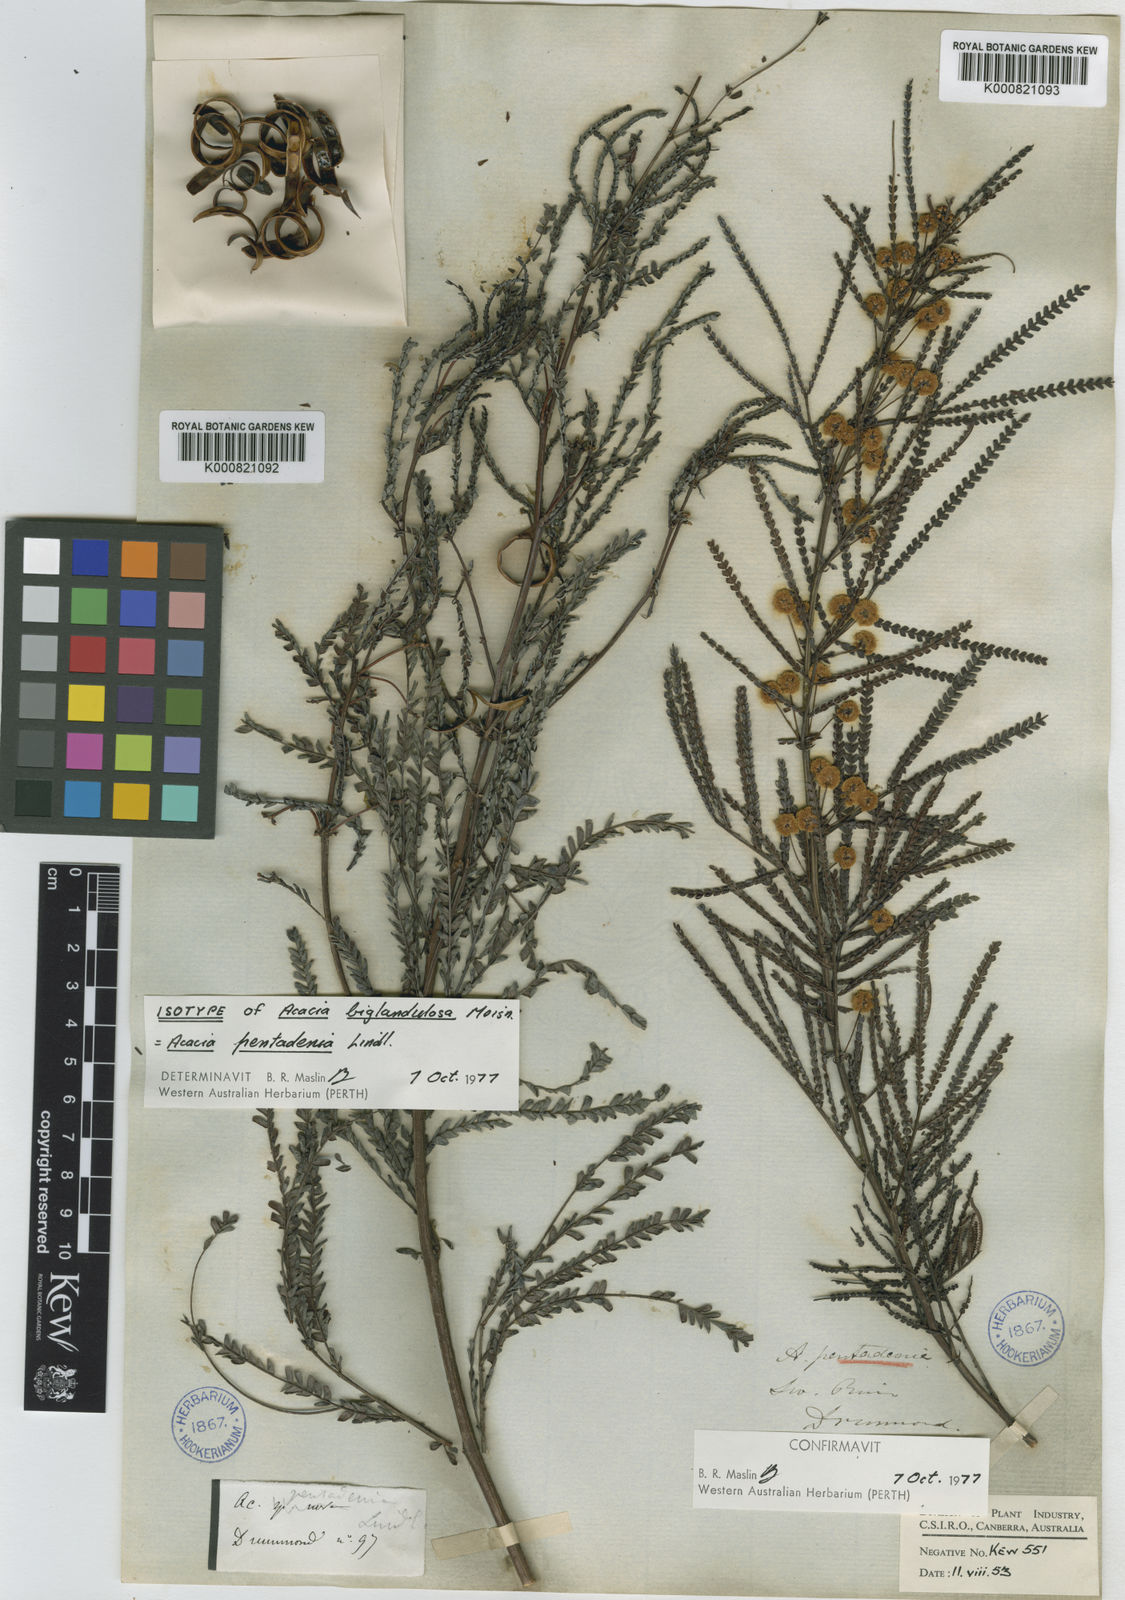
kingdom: Plantae
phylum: Tracheophyta
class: Magnoliopsida
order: Fabales
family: Fabaceae
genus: Acacia
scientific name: Acacia pentadenia
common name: Karri wattle
